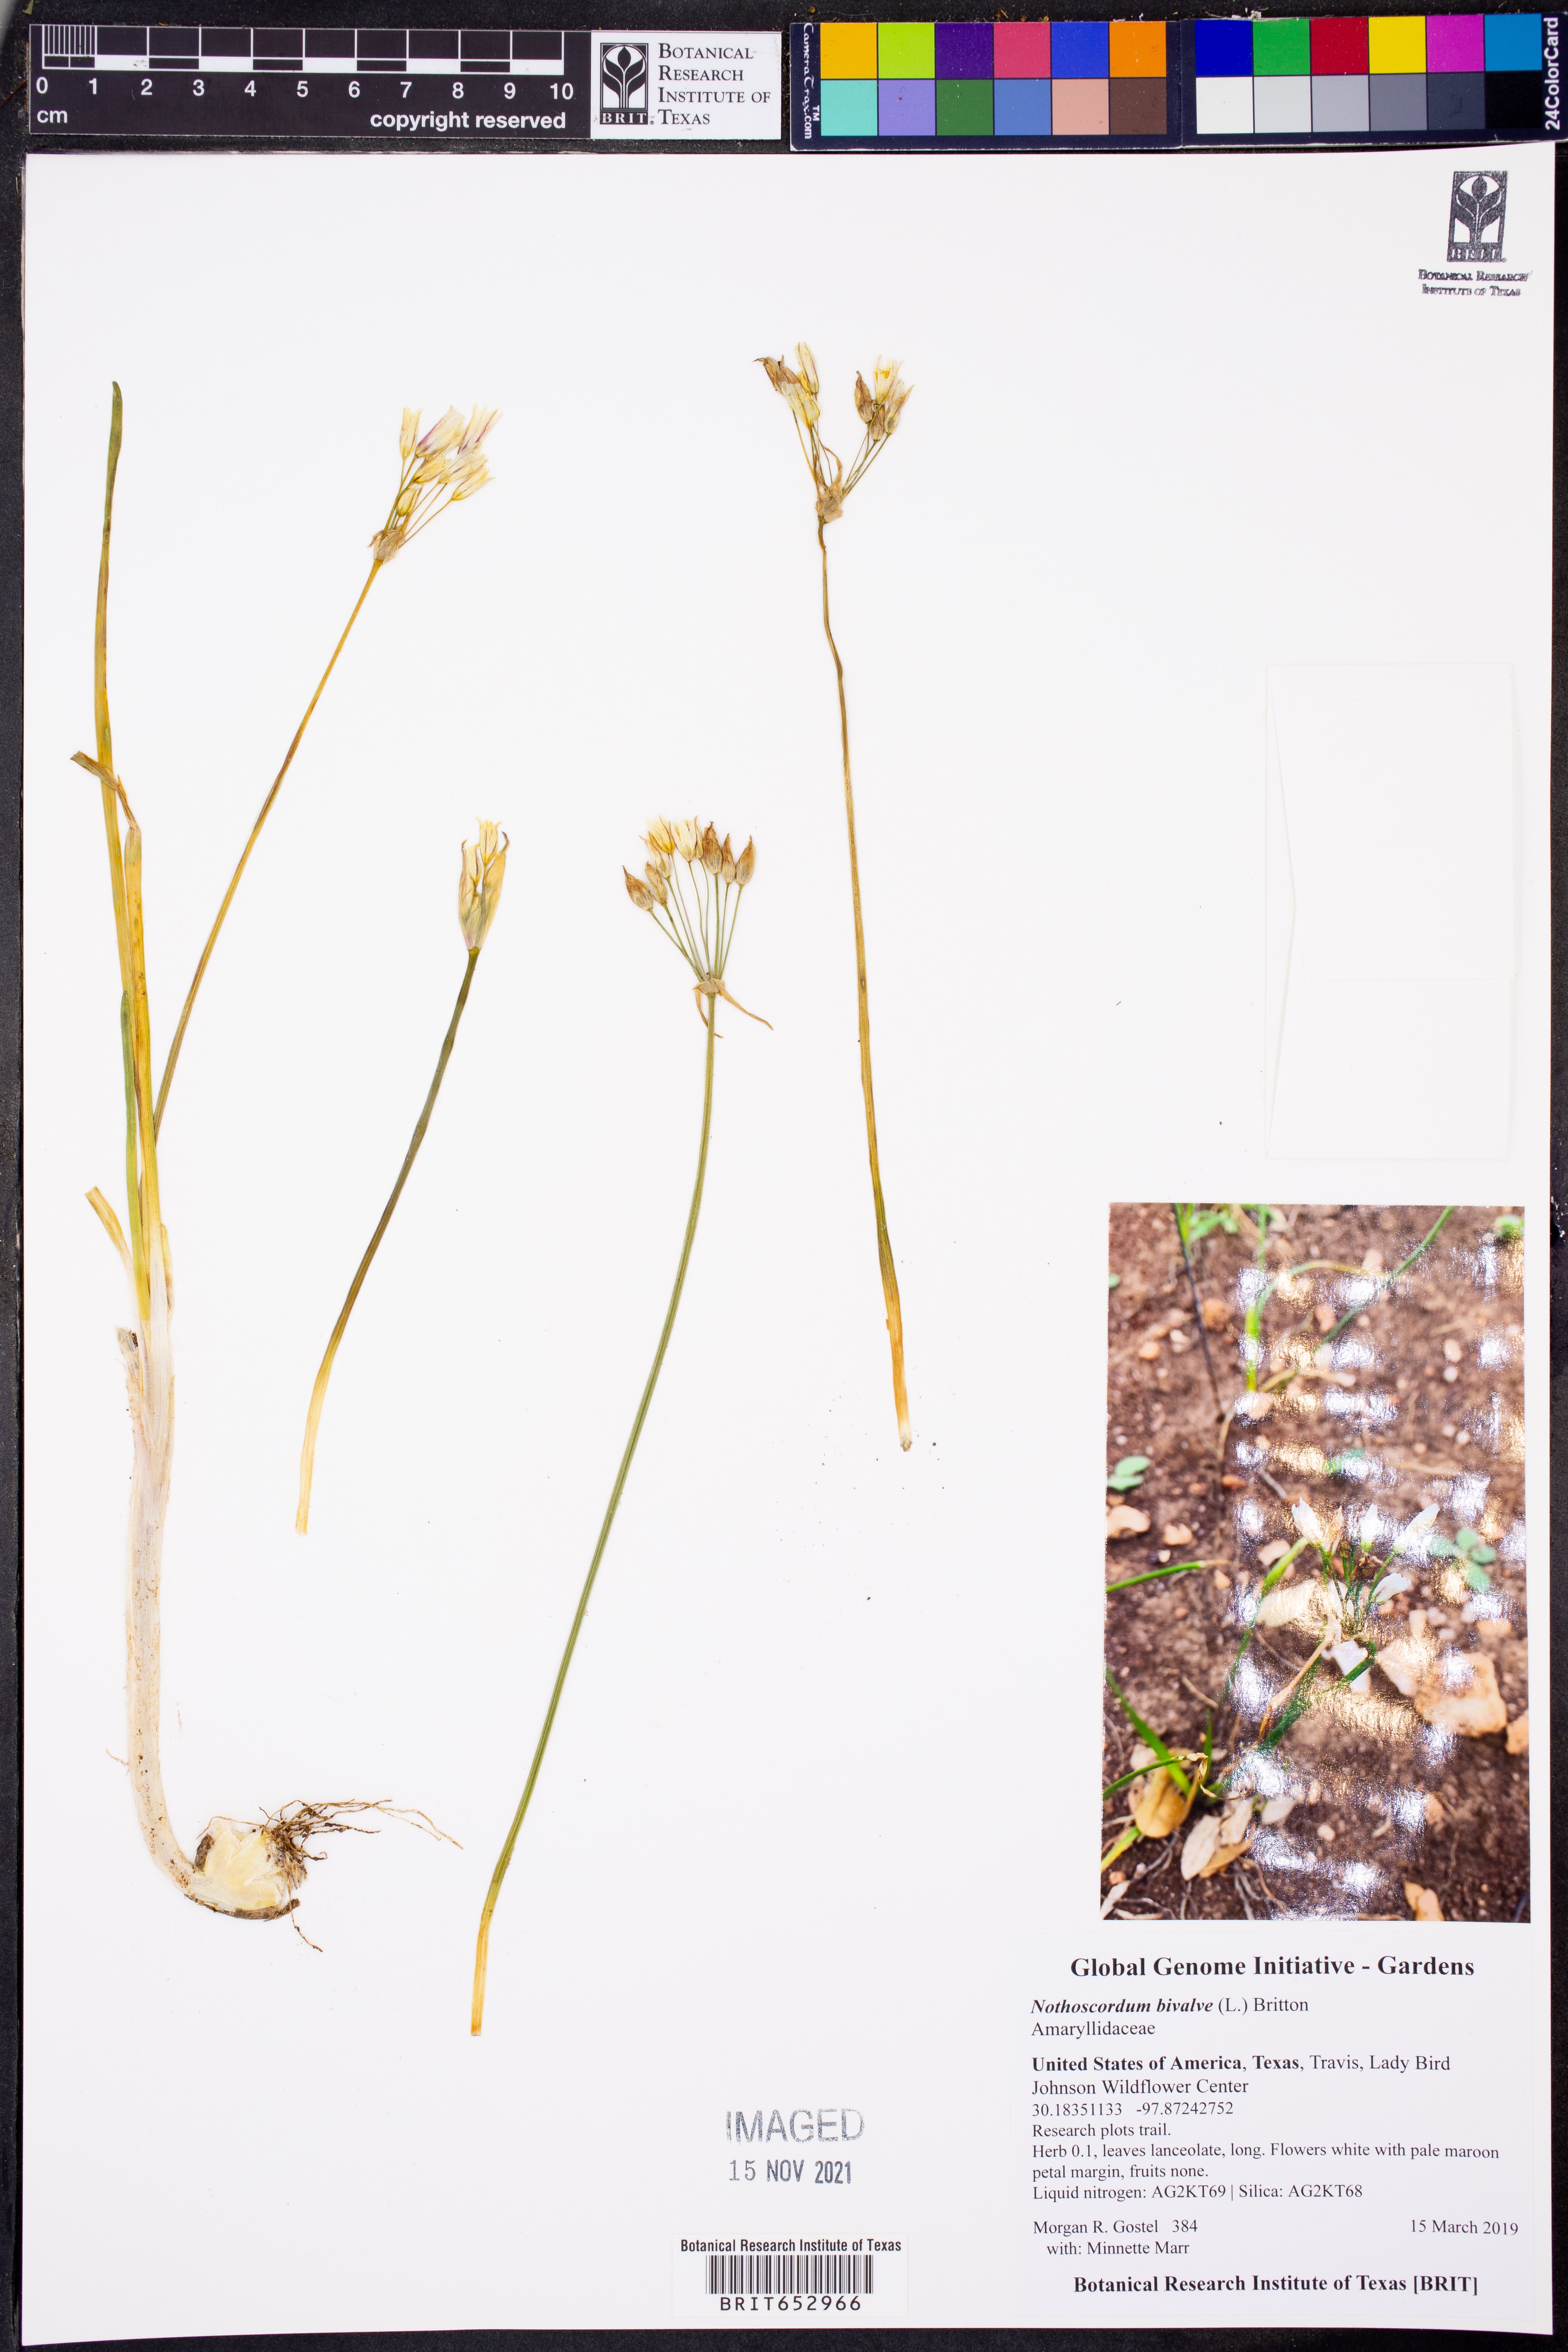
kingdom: Plantae
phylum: Tracheophyta
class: Liliopsida
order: Asparagales
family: Amaryllidaceae
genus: Nothoscordum
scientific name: Nothoscordum bivalve
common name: Crow-poison
